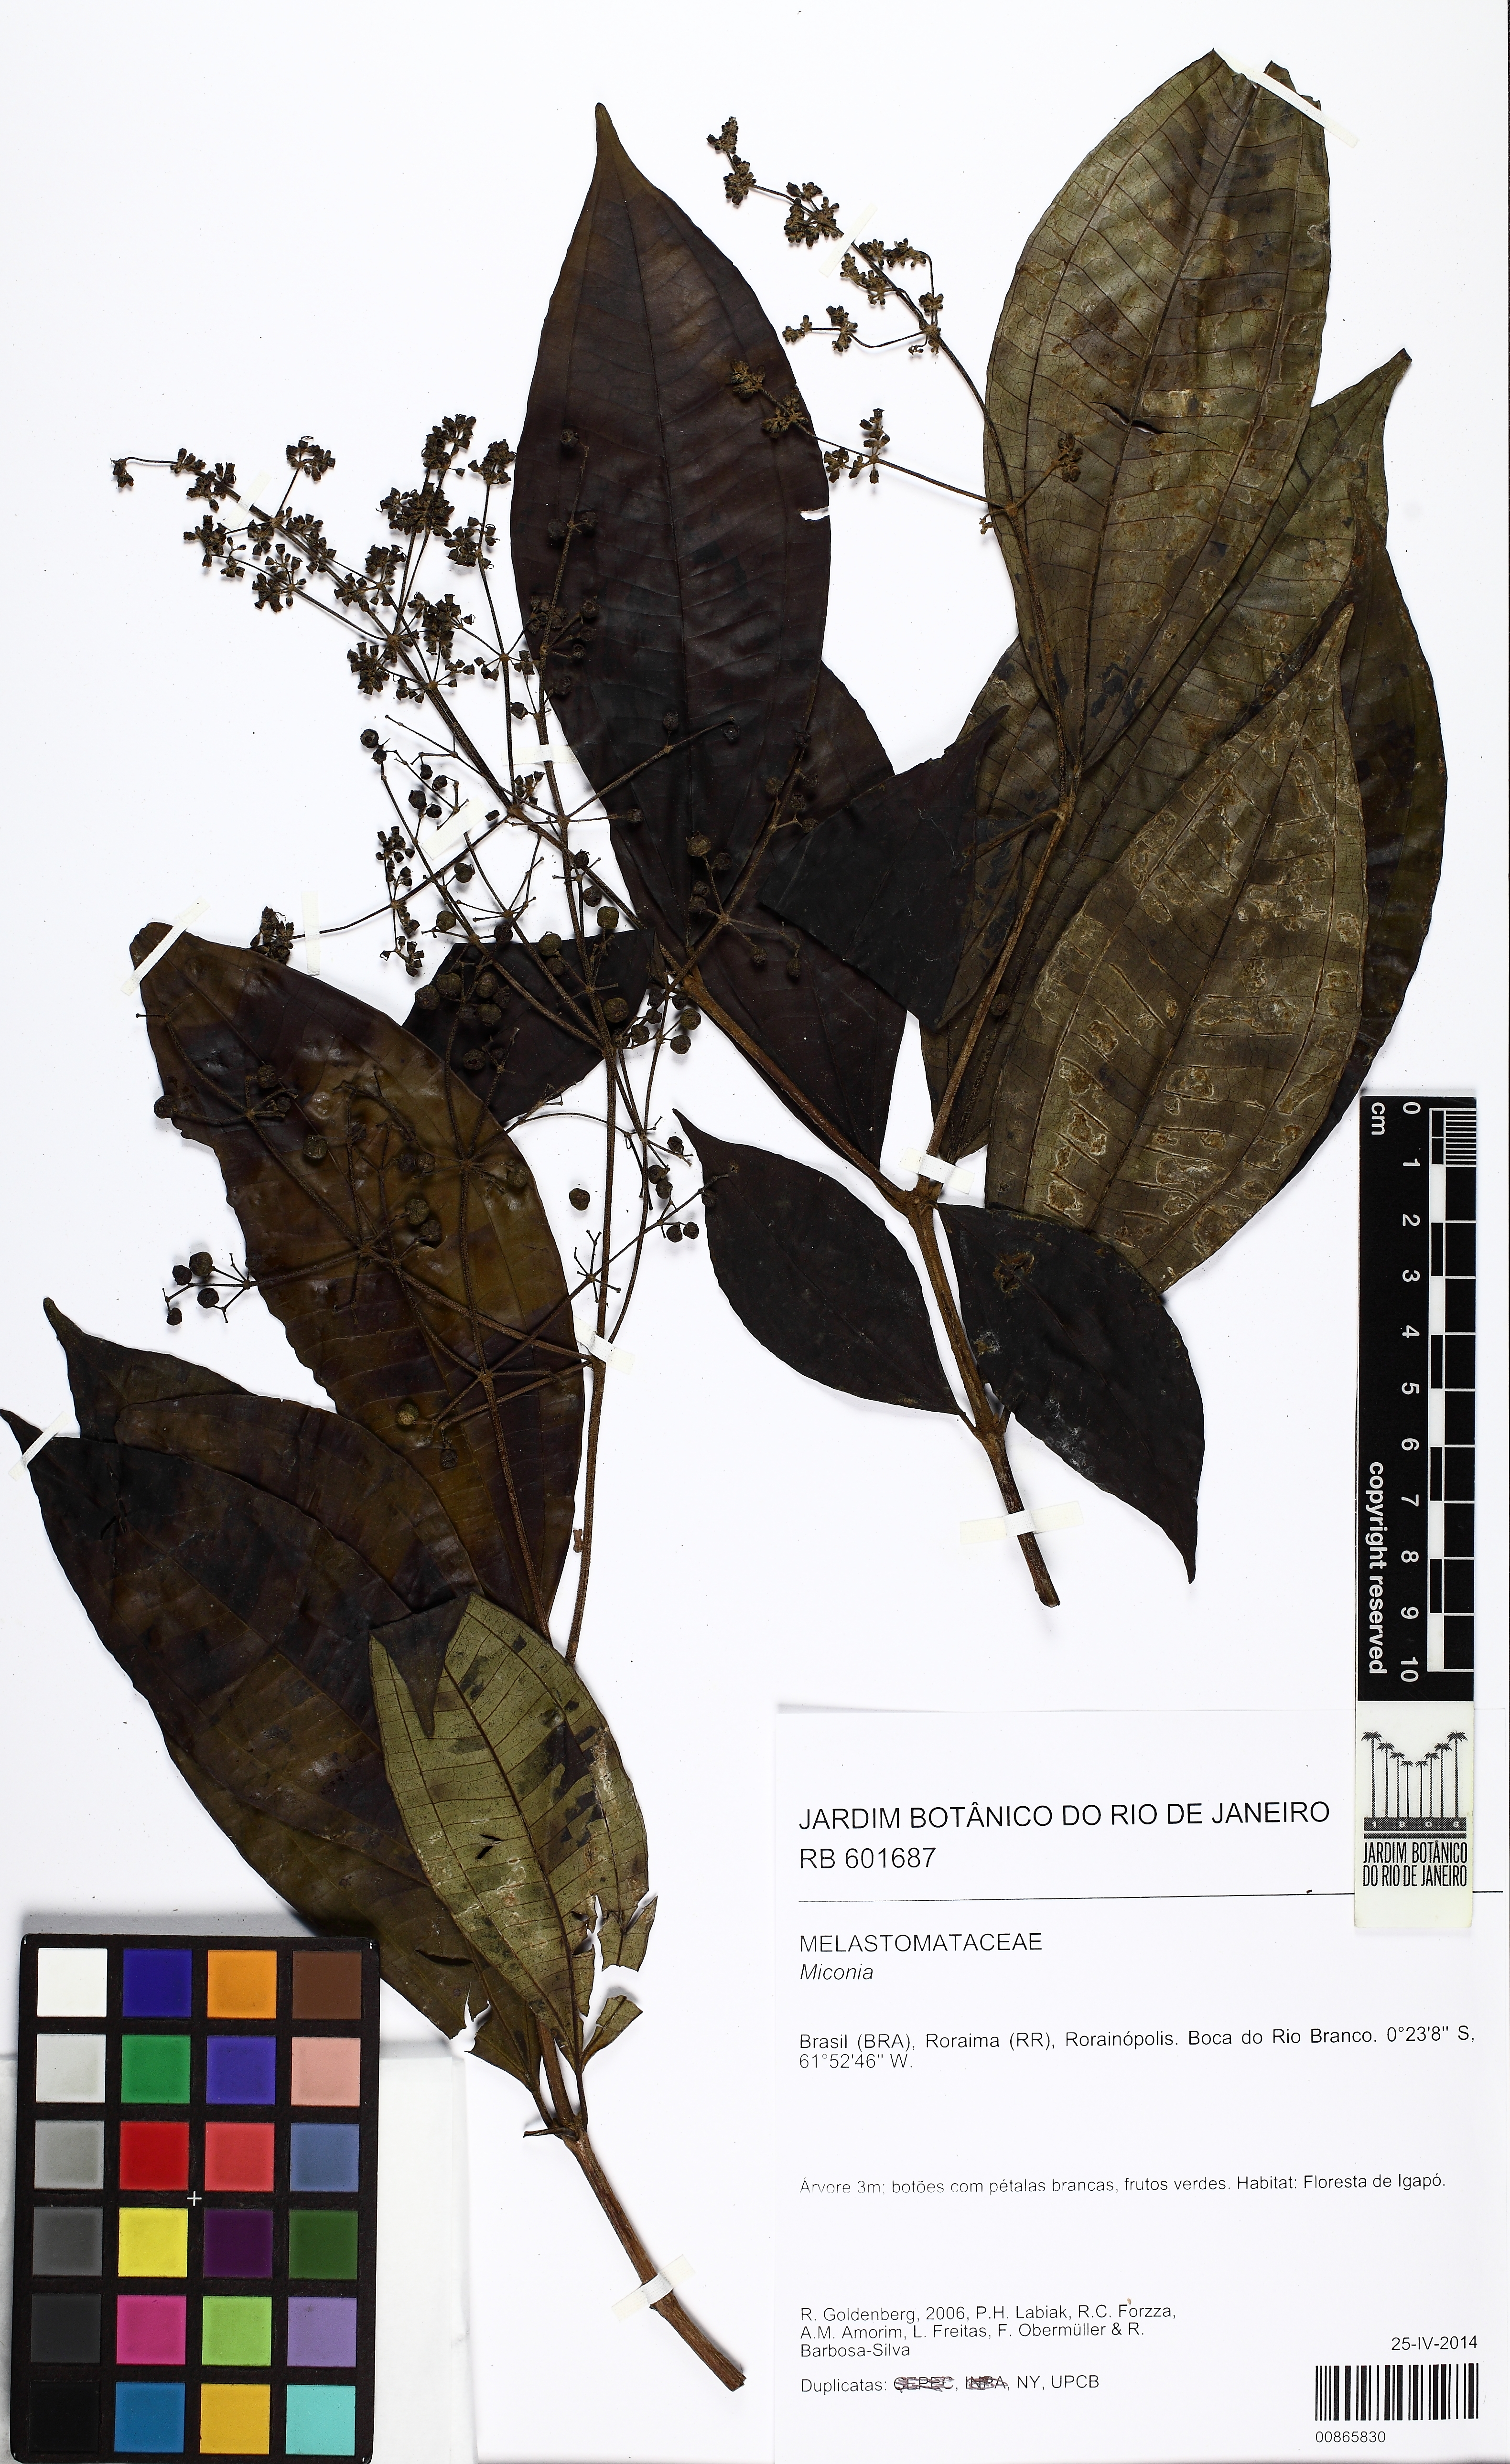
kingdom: Plantae
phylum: Tracheophyta
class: Magnoliopsida
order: Myrtales
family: Melastomataceae
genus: Miconia
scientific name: Miconia longifolia
